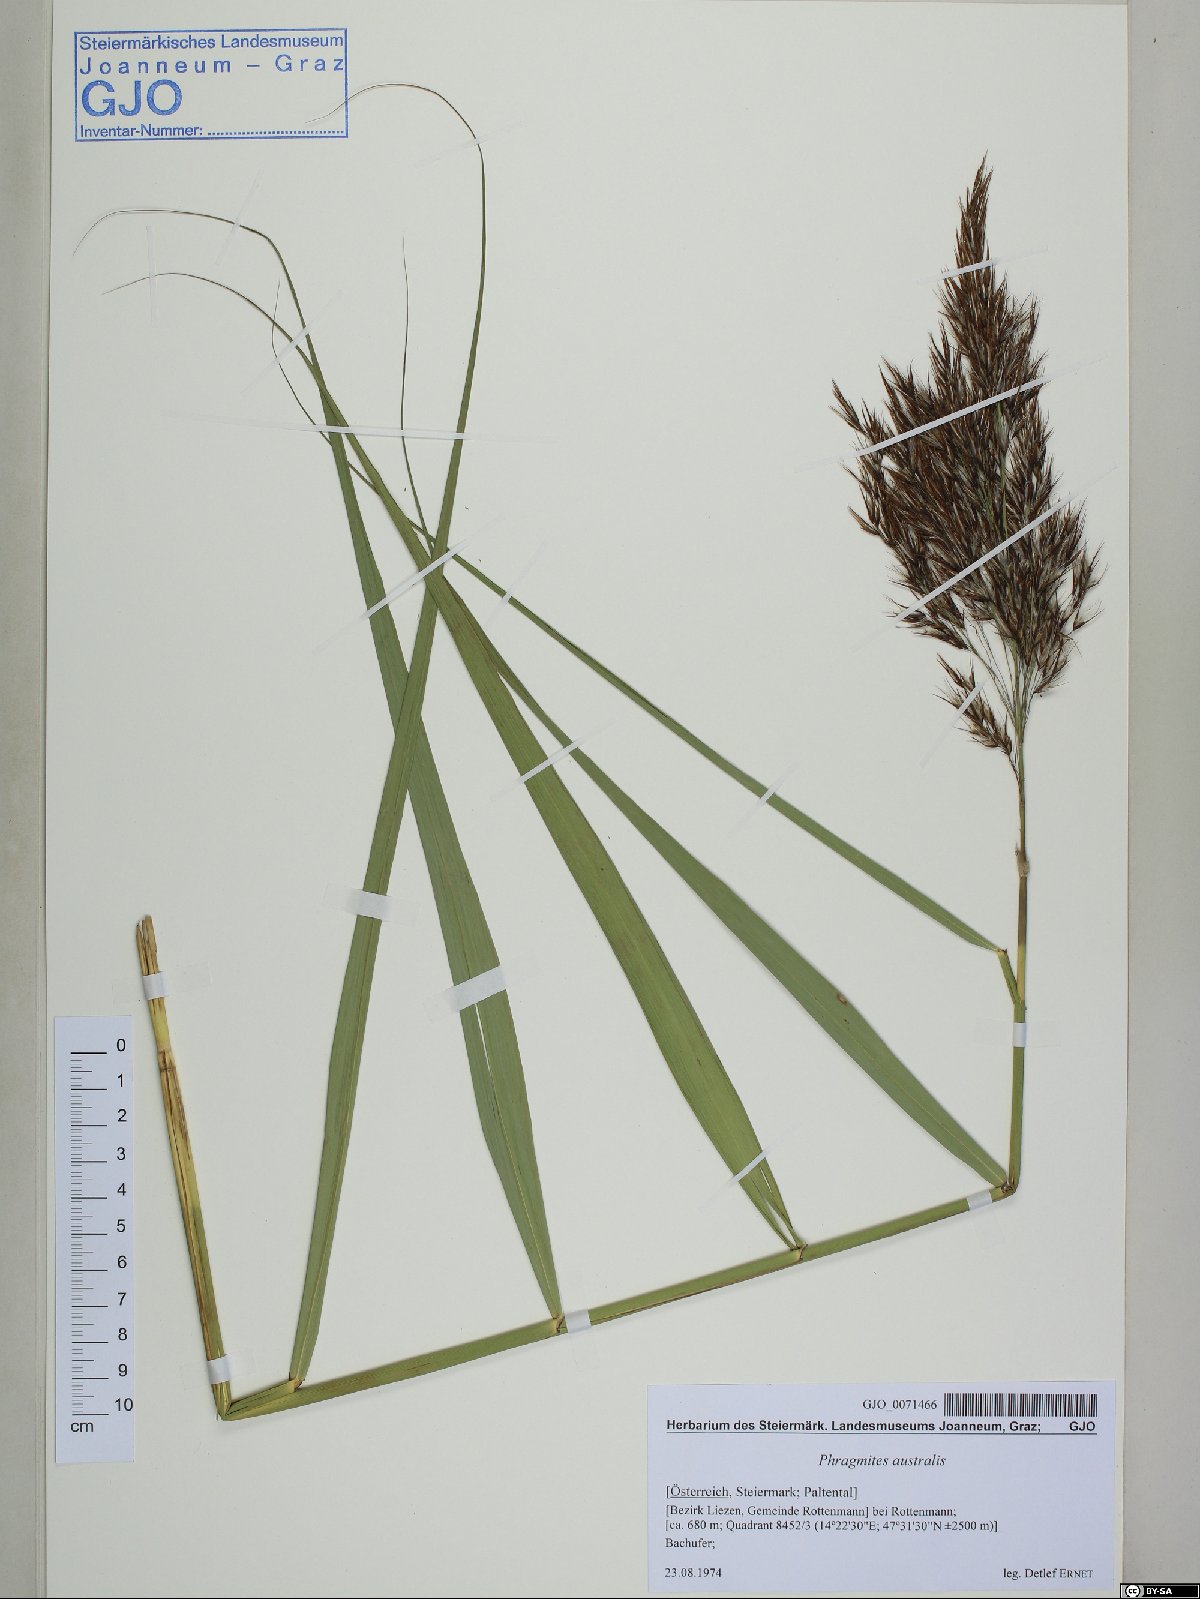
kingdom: Plantae
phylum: Tracheophyta
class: Liliopsida
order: Poales
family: Poaceae
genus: Phragmites
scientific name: Phragmites australis
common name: Common reed
